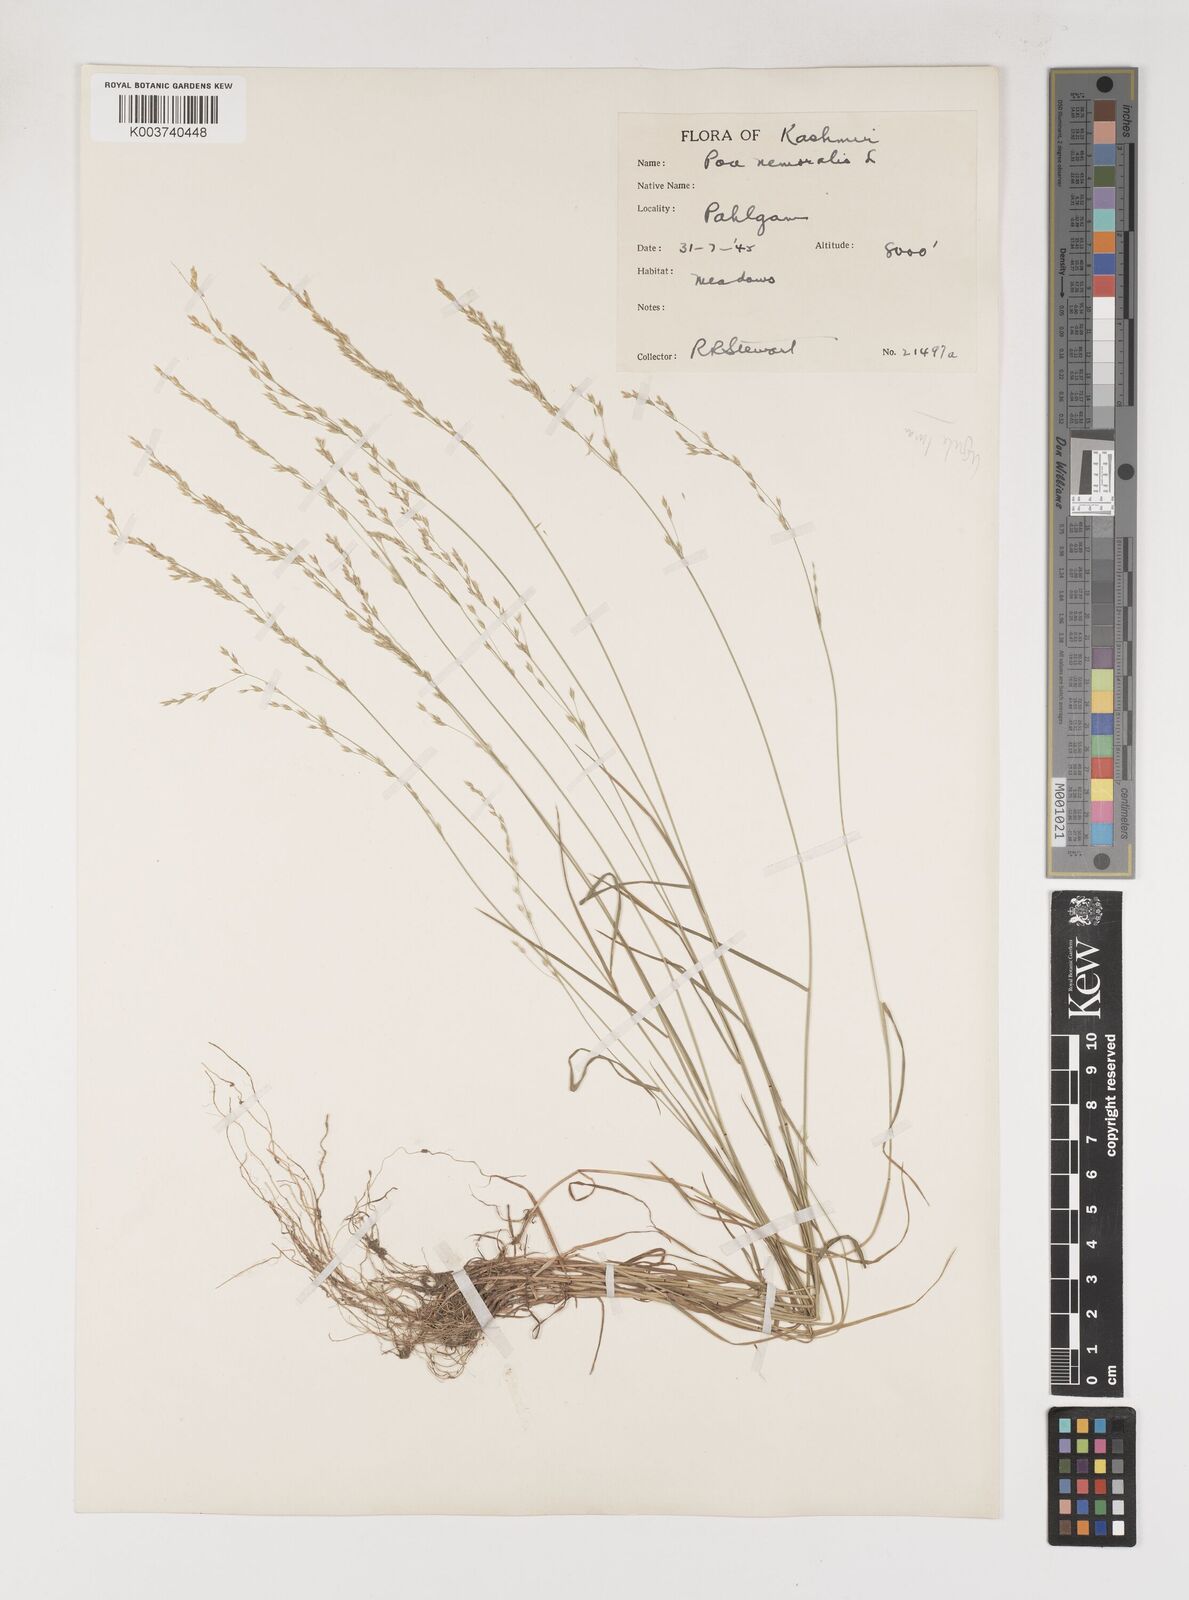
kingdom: Plantae
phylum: Tracheophyta
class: Liliopsida
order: Poales
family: Poaceae
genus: Poa
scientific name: Poa nemoralis
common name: Wood bluegrass
